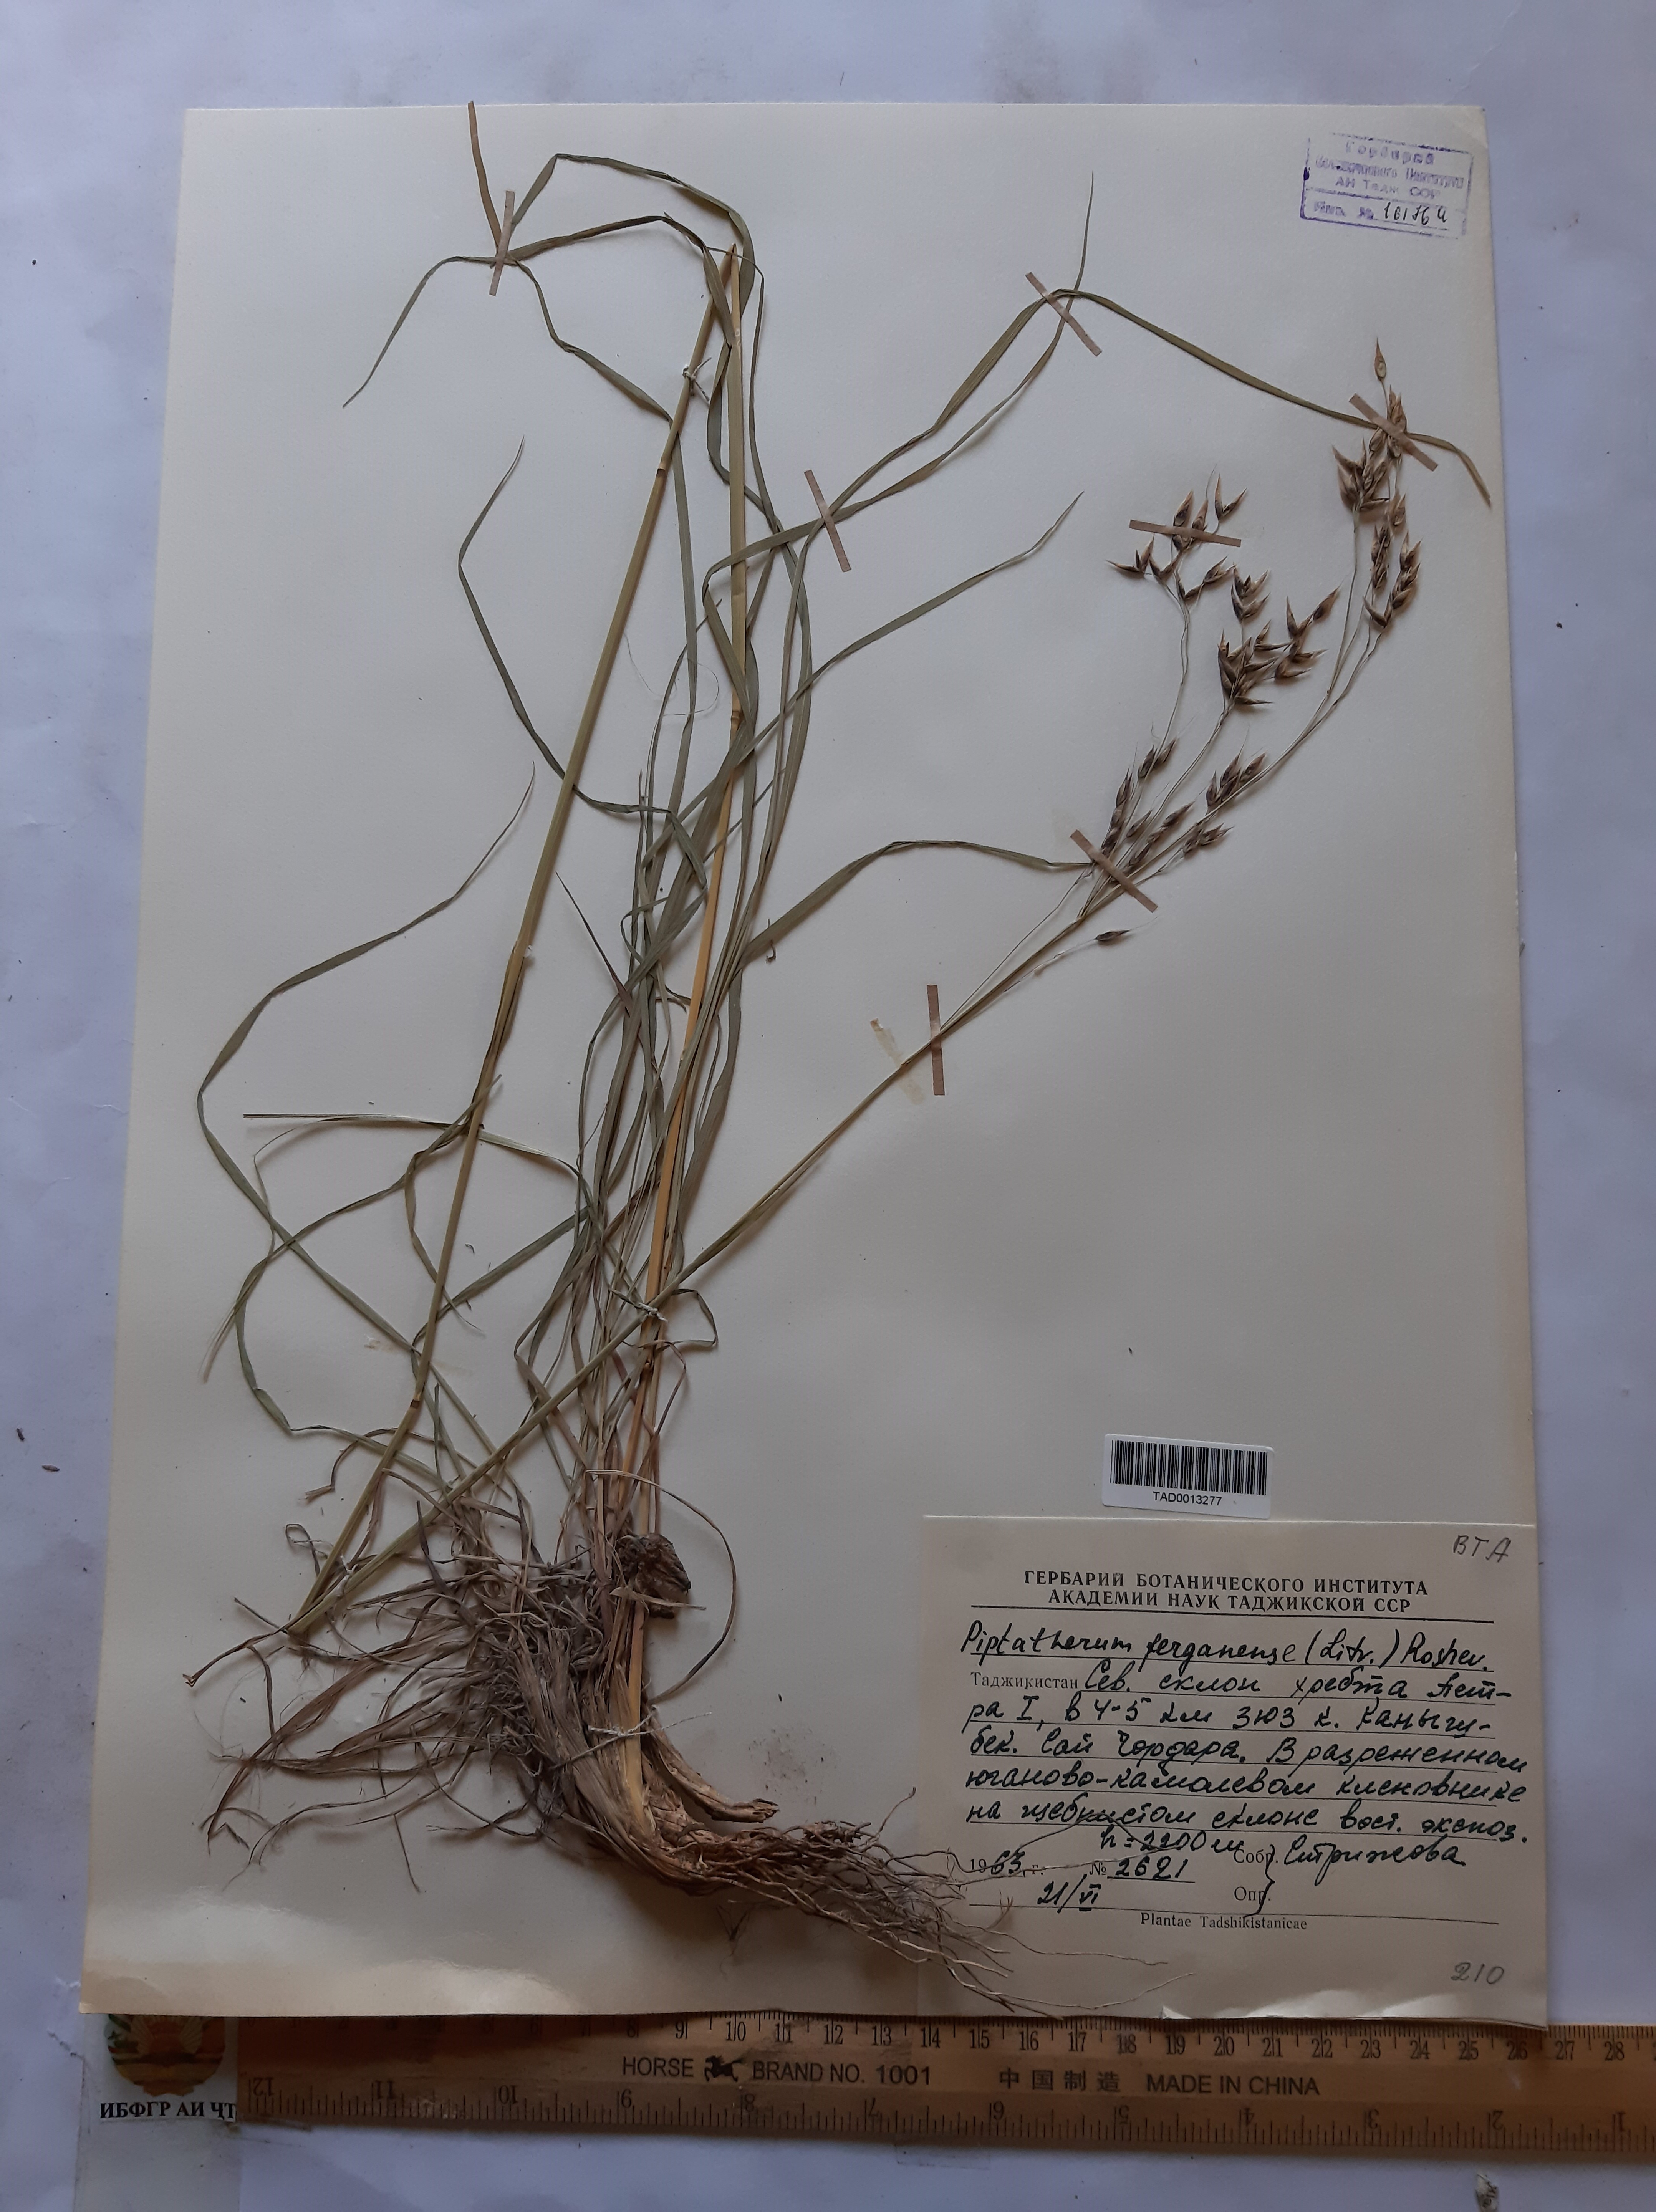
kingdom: Plantae
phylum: Tracheophyta
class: Liliopsida
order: Poales
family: Poaceae
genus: Piptatherum
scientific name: Piptatherum ferganense
